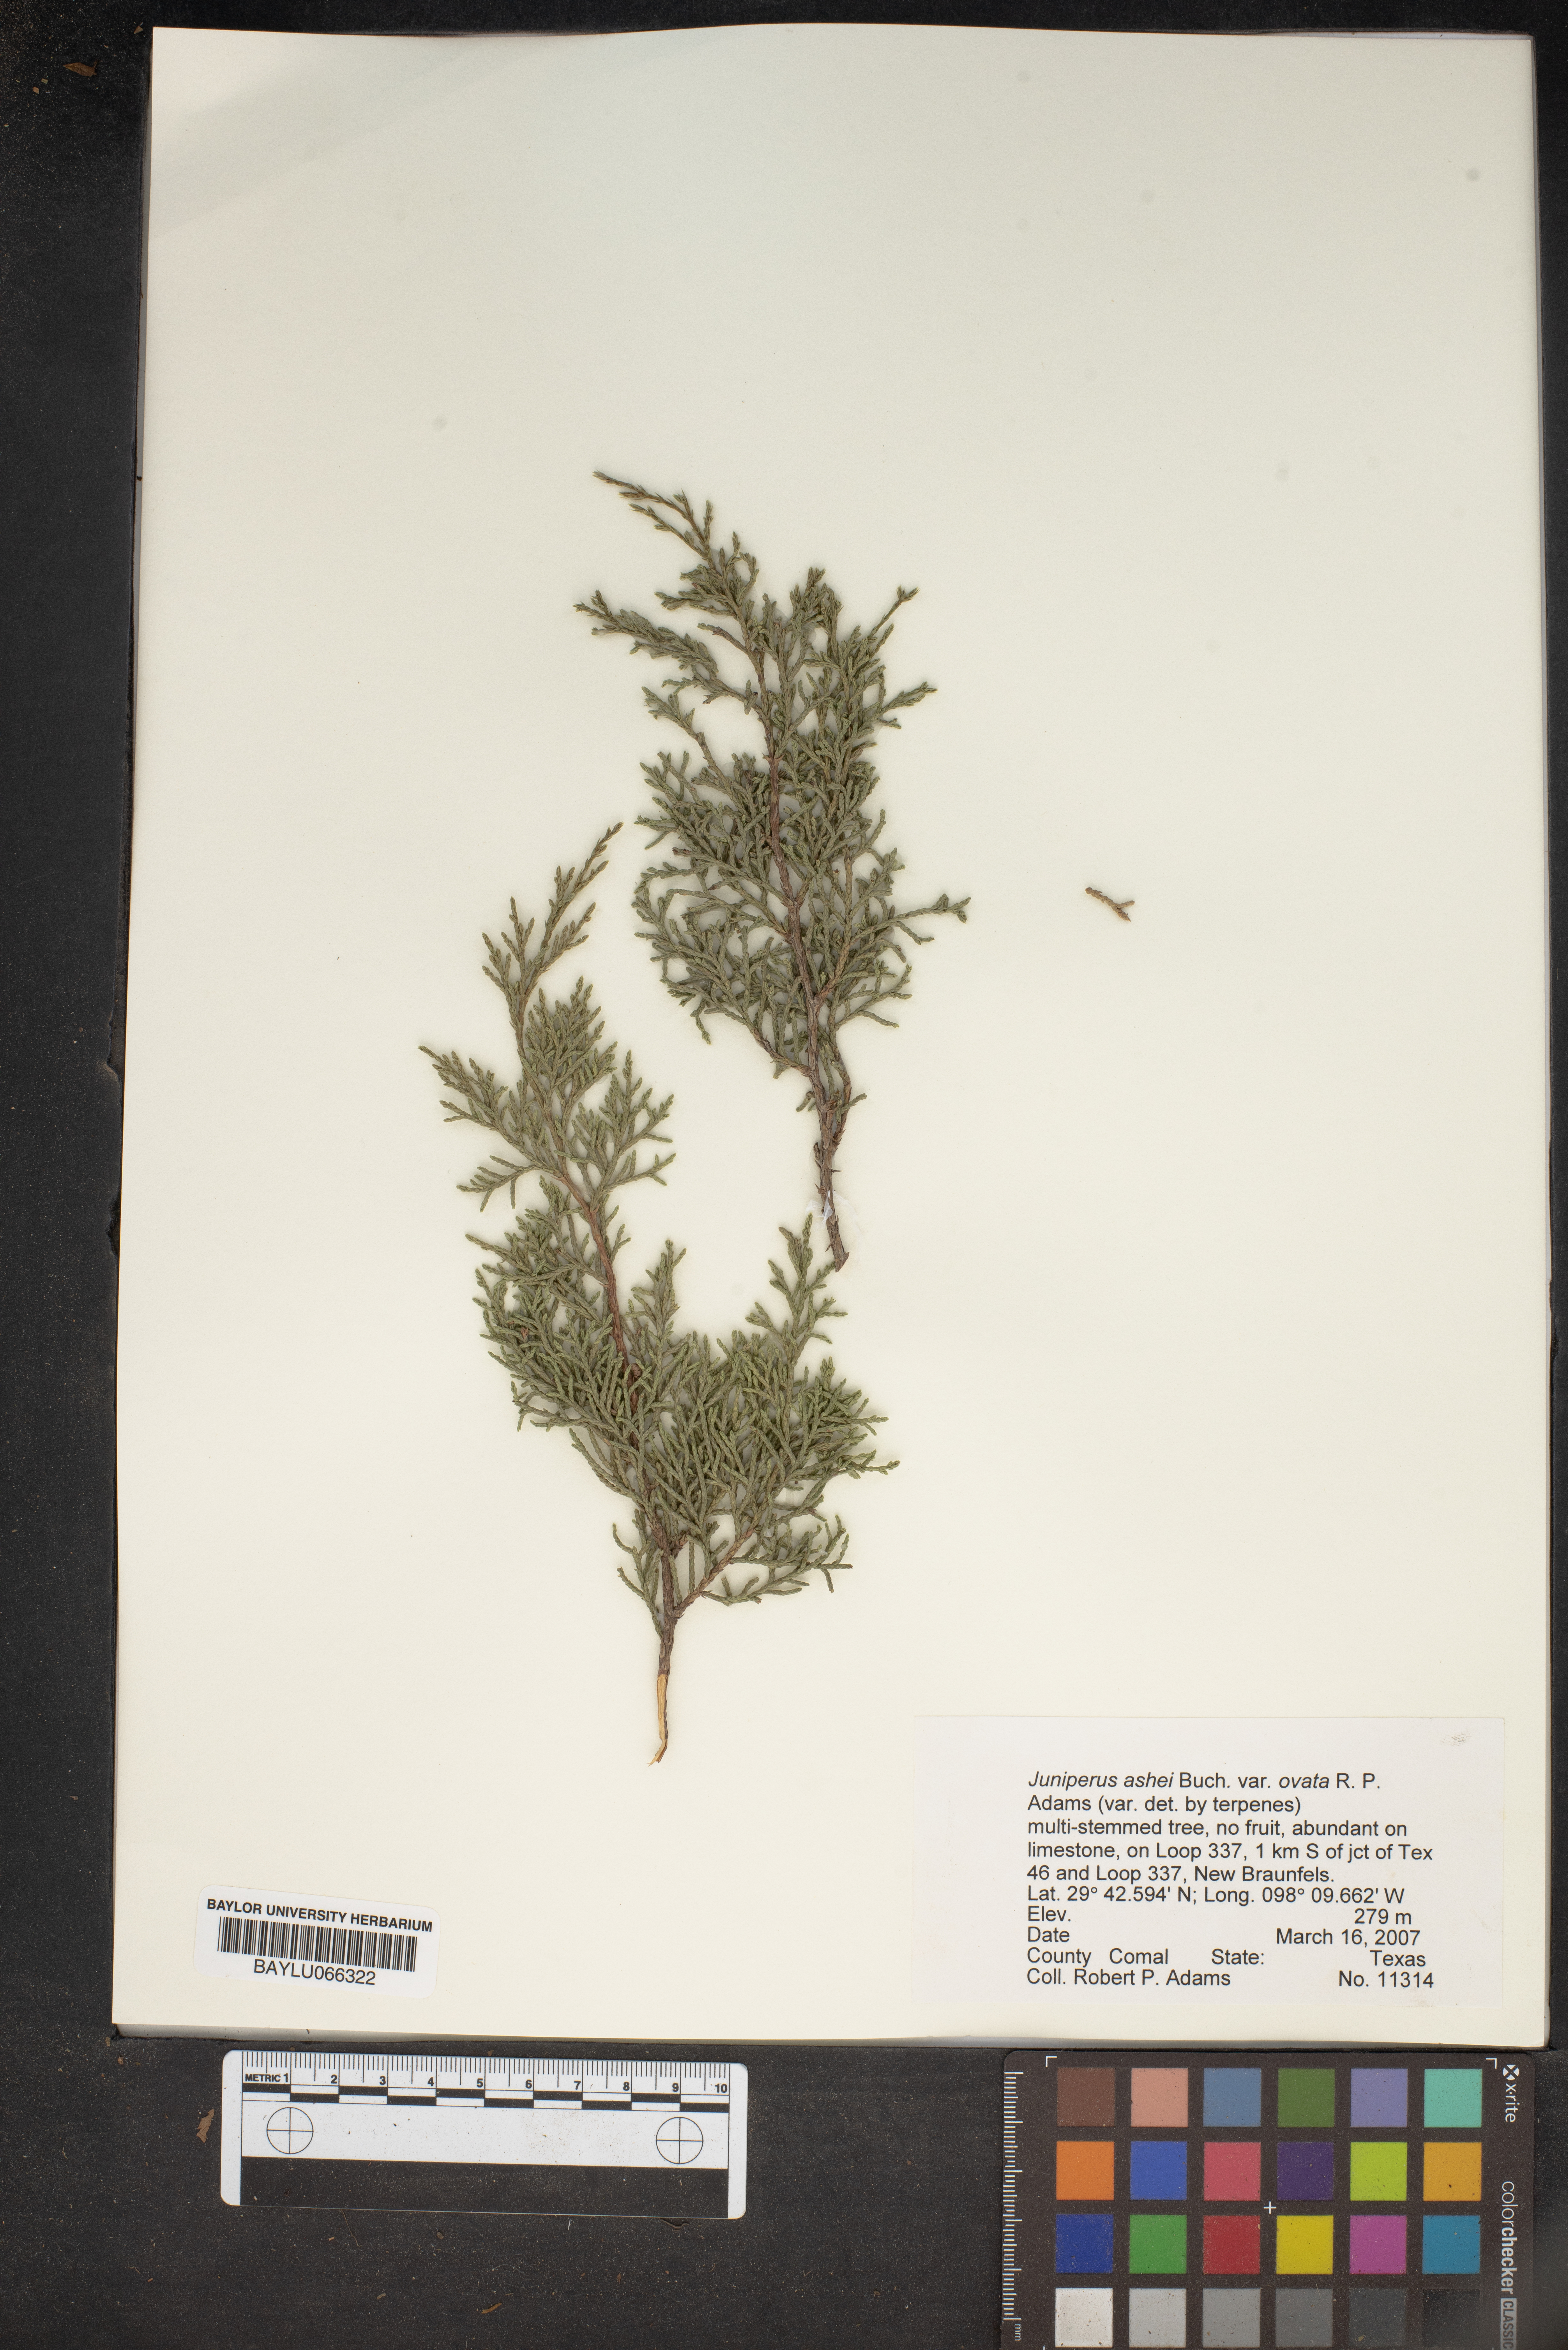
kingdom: Plantae
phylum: Tracheophyta
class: Pinopsida
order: Pinales
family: Cupressaceae
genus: Juniperus
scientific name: Juniperus ashei
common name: Mexican juniper
